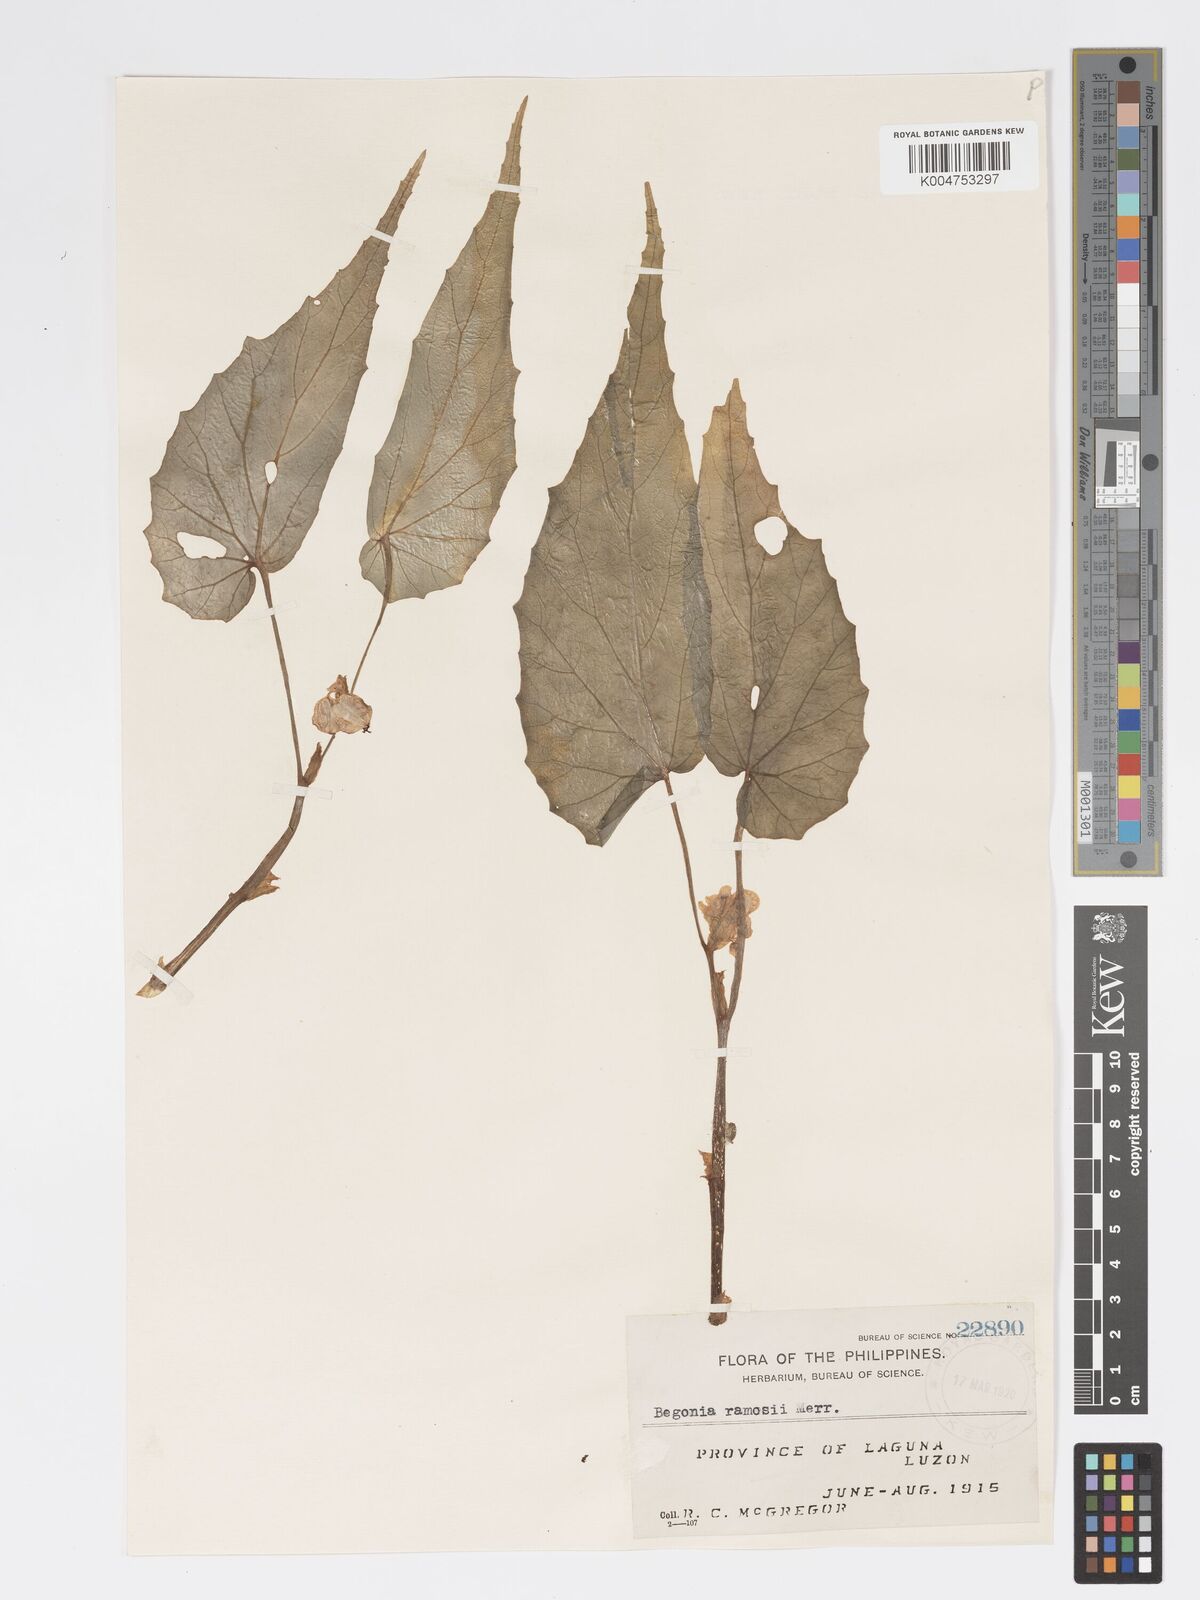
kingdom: Plantae
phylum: Tracheophyta
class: Magnoliopsida
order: Cucurbitales
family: Begoniaceae
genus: Begonia
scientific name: Begonia ramosii
